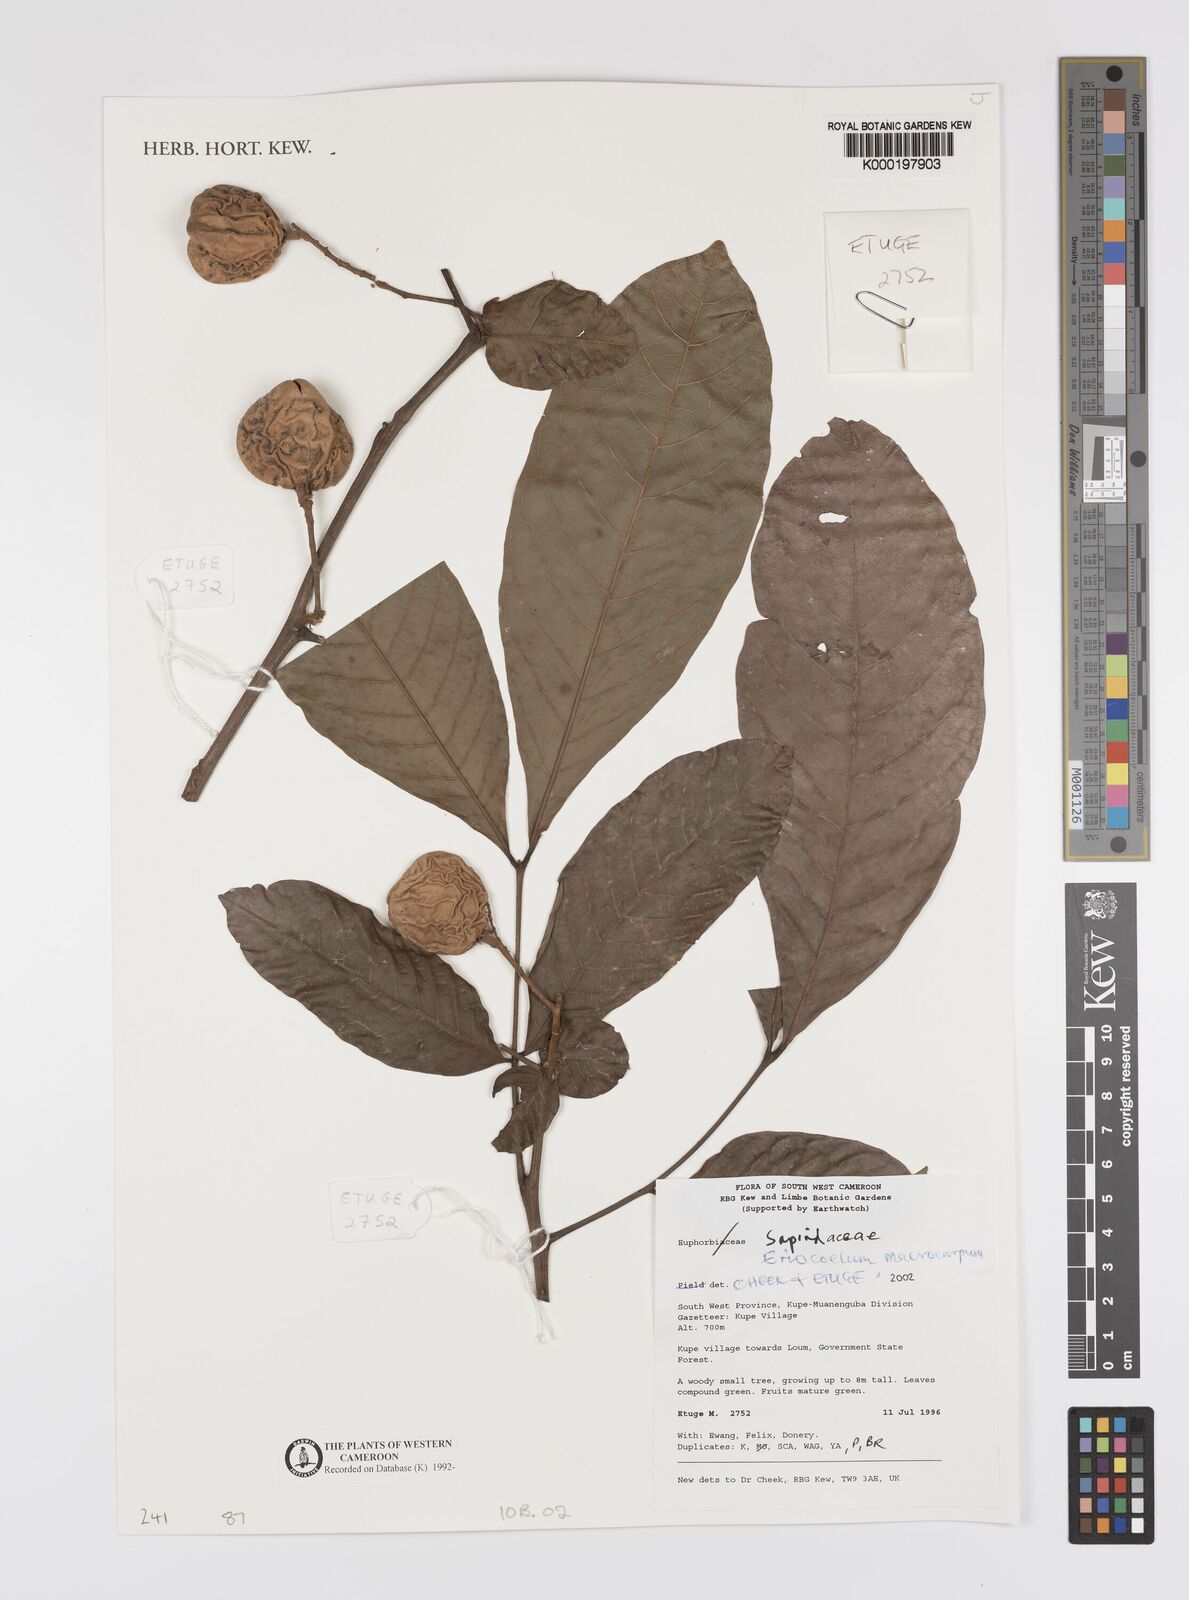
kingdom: Plantae
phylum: Tracheophyta
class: Magnoliopsida
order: Sapindales
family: Sapindaceae
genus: Eriocoelum
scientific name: Eriocoelum
